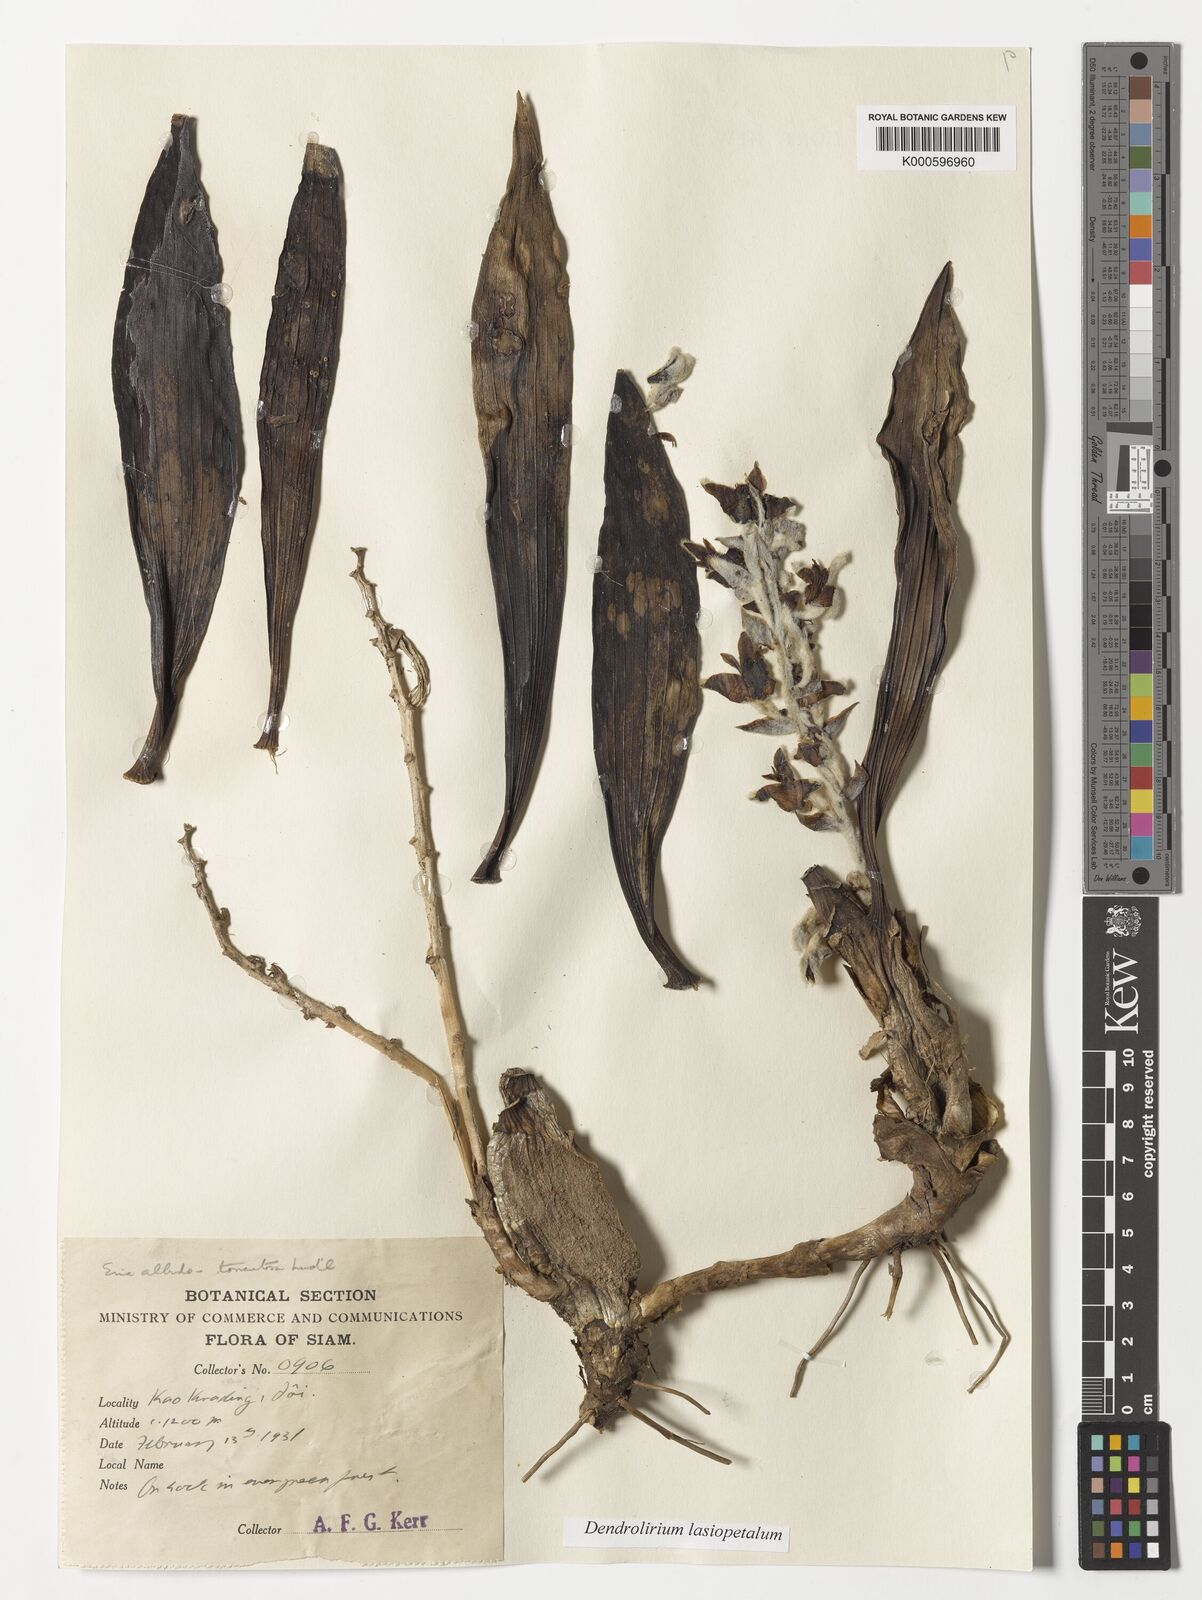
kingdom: Plantae
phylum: Tracheophyta
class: Liliopsida
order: Asparagales
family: Orchidaceae
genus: Dendrolirium
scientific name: Dendrolirium lasiopetalum
